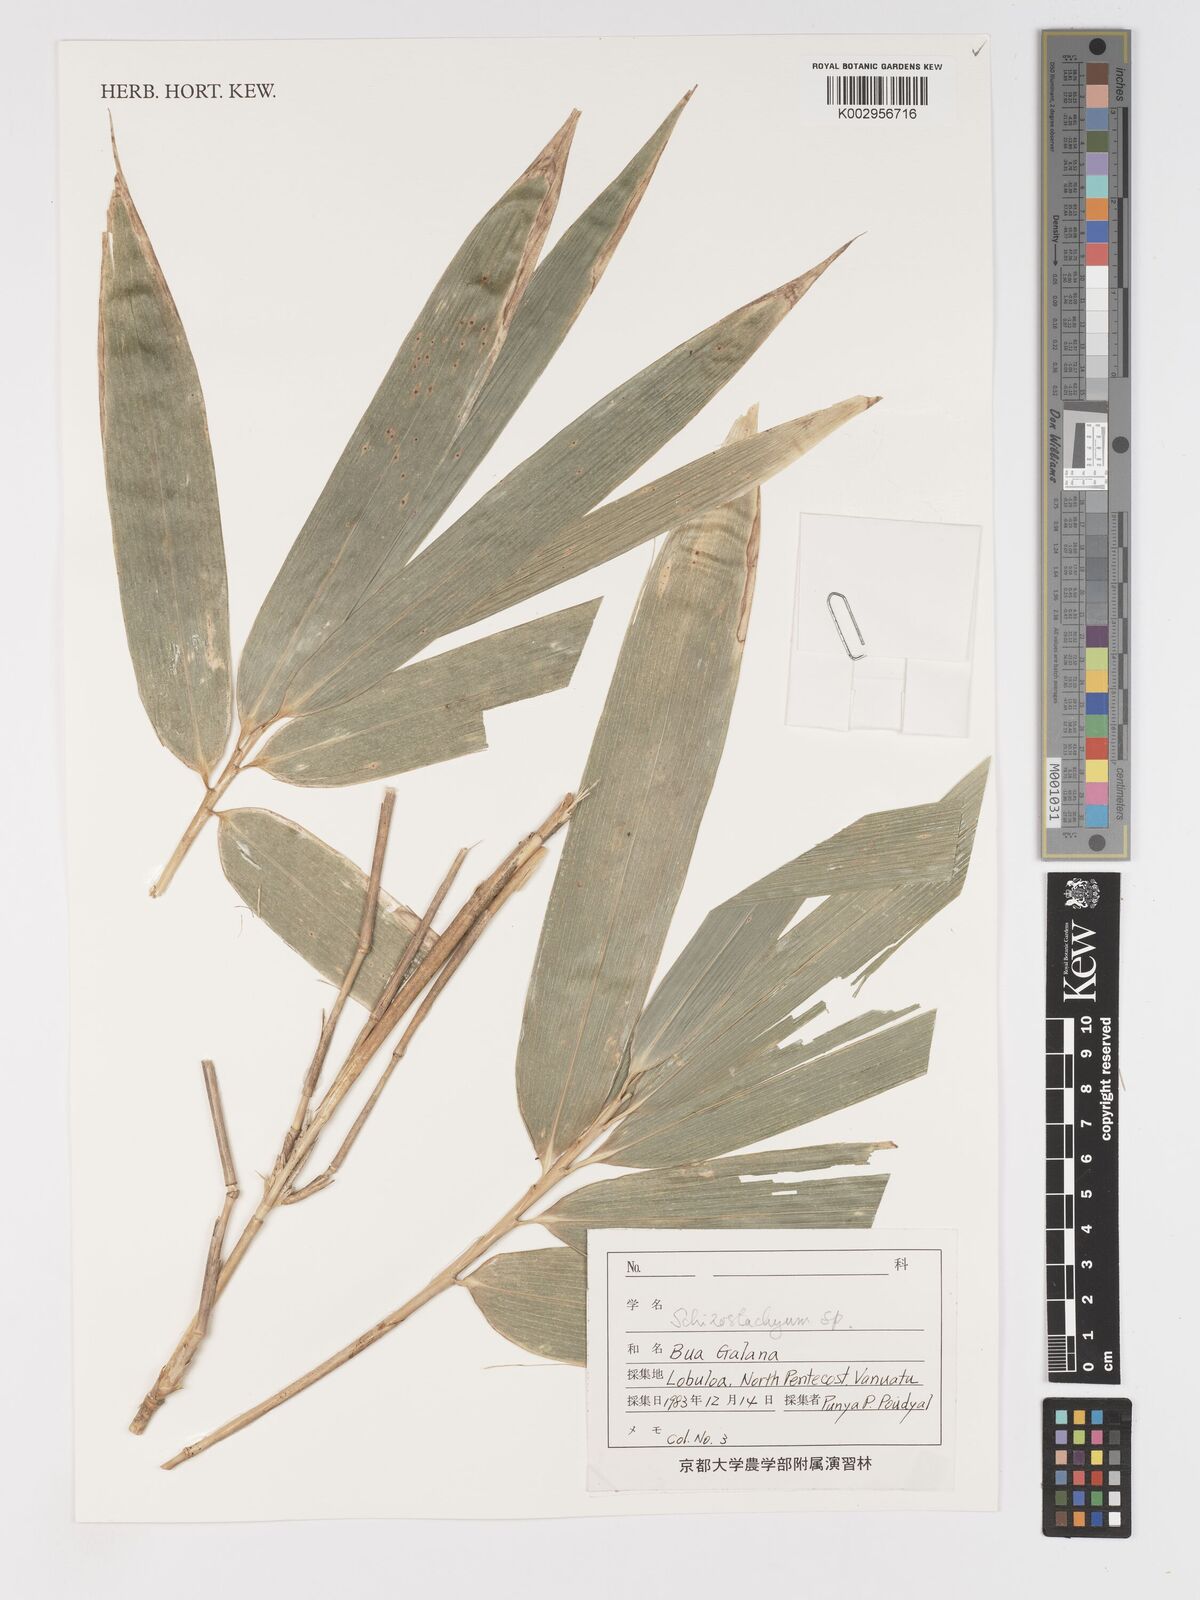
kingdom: Plantae
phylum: Tracheophyta
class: Liliopsida
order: Poales
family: Poaceae
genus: Schizostachyum
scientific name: Schizostachyum
